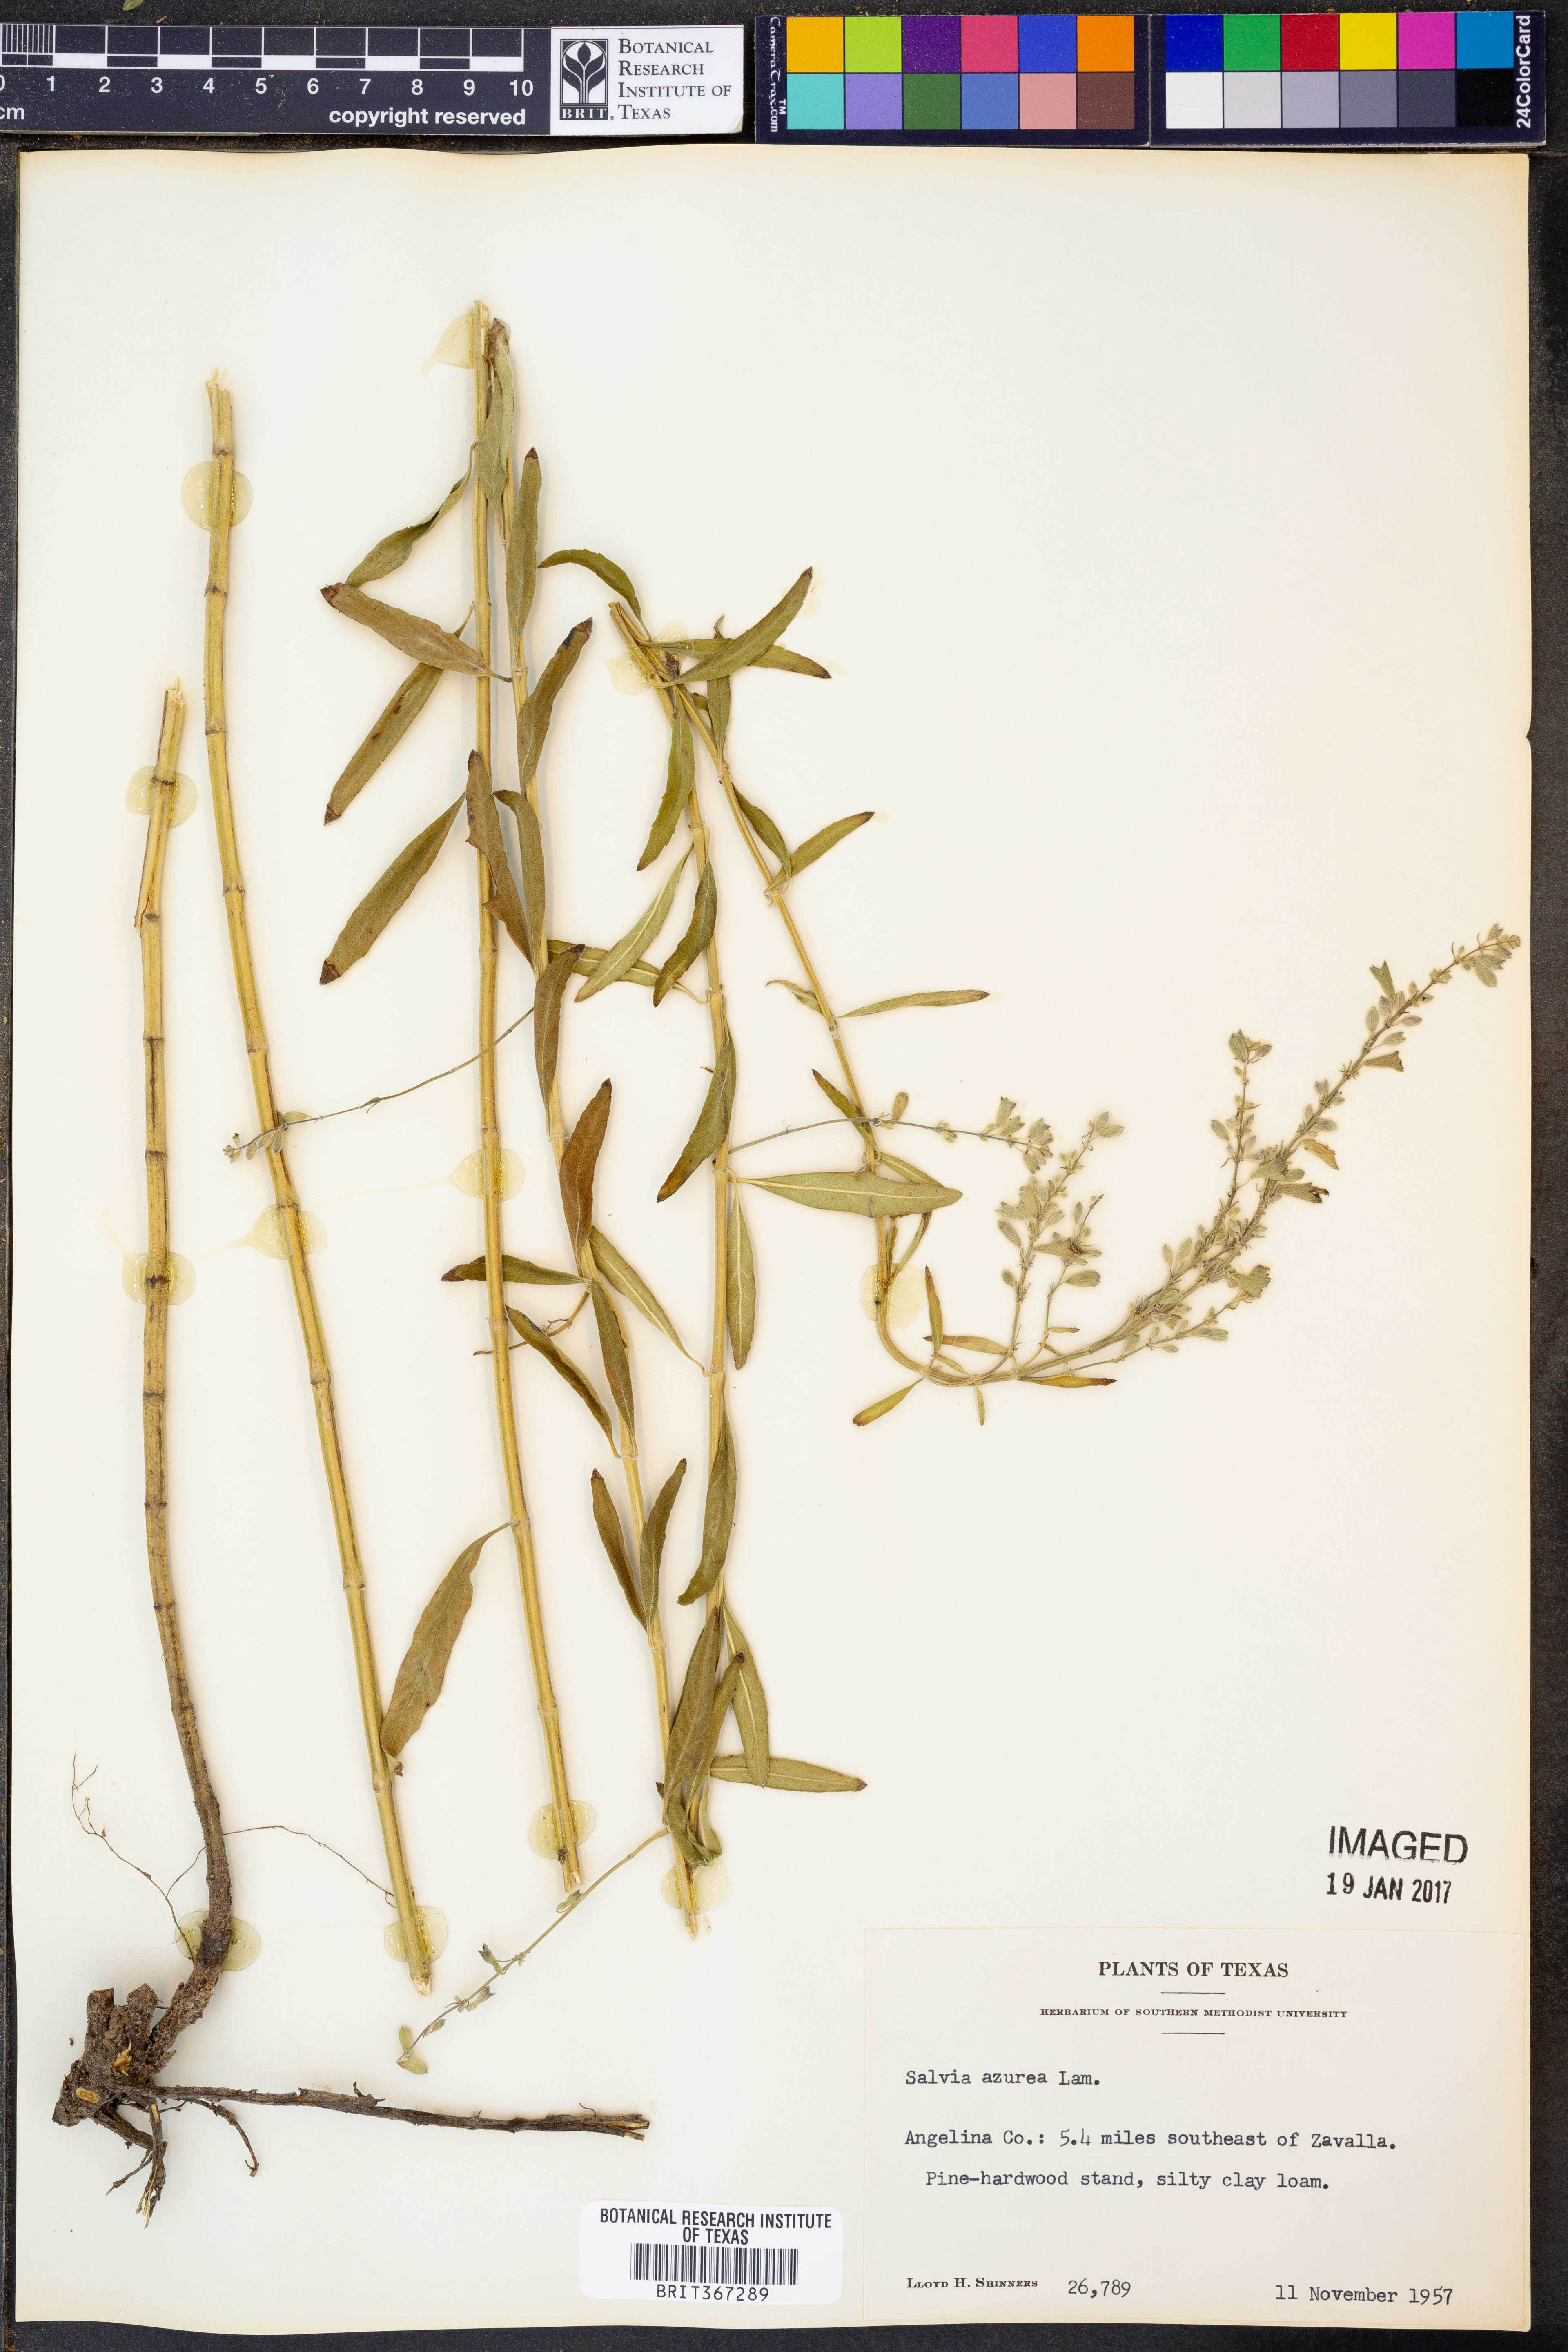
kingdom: Plantae
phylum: Tracheophyta
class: Magnoliopsida
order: Lamiales
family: Lamiaceae
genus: Salvia
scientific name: Salvia azurea
